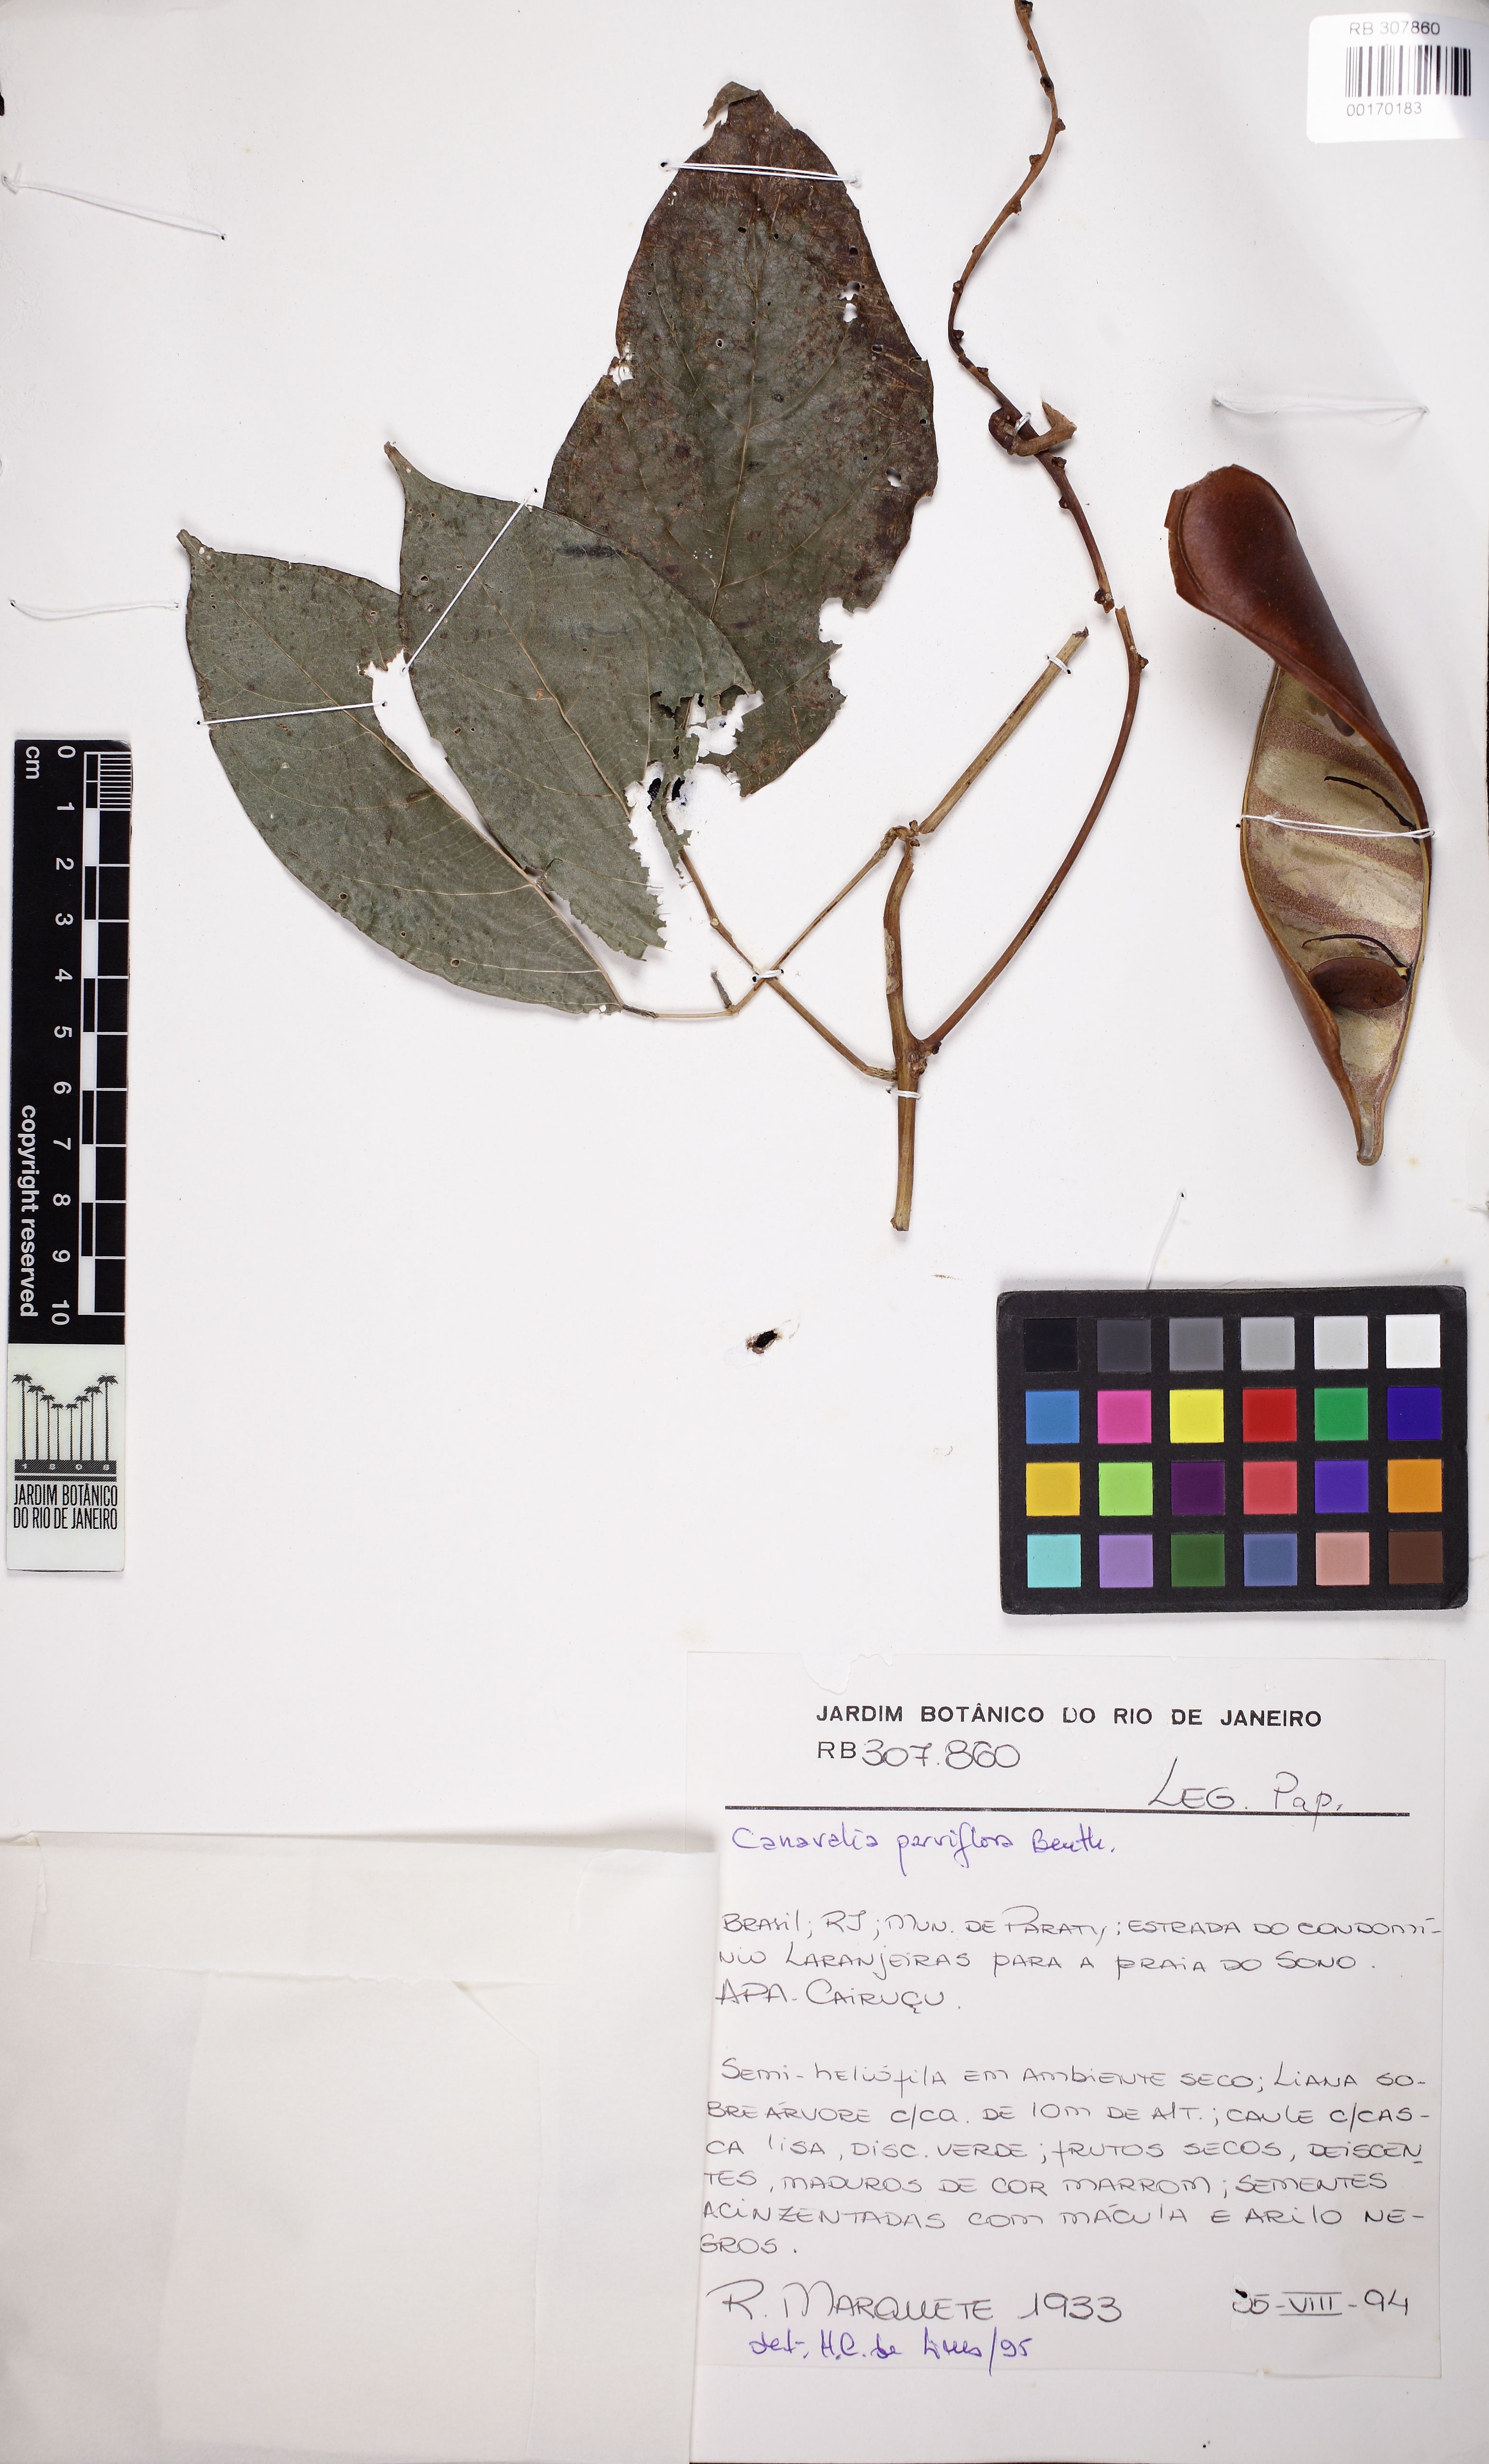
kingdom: Plantae
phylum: Tracheophyta
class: Magnoliopsida
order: Fabales
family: Fabaceae
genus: Canavalia
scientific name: Canavalia parviflora
